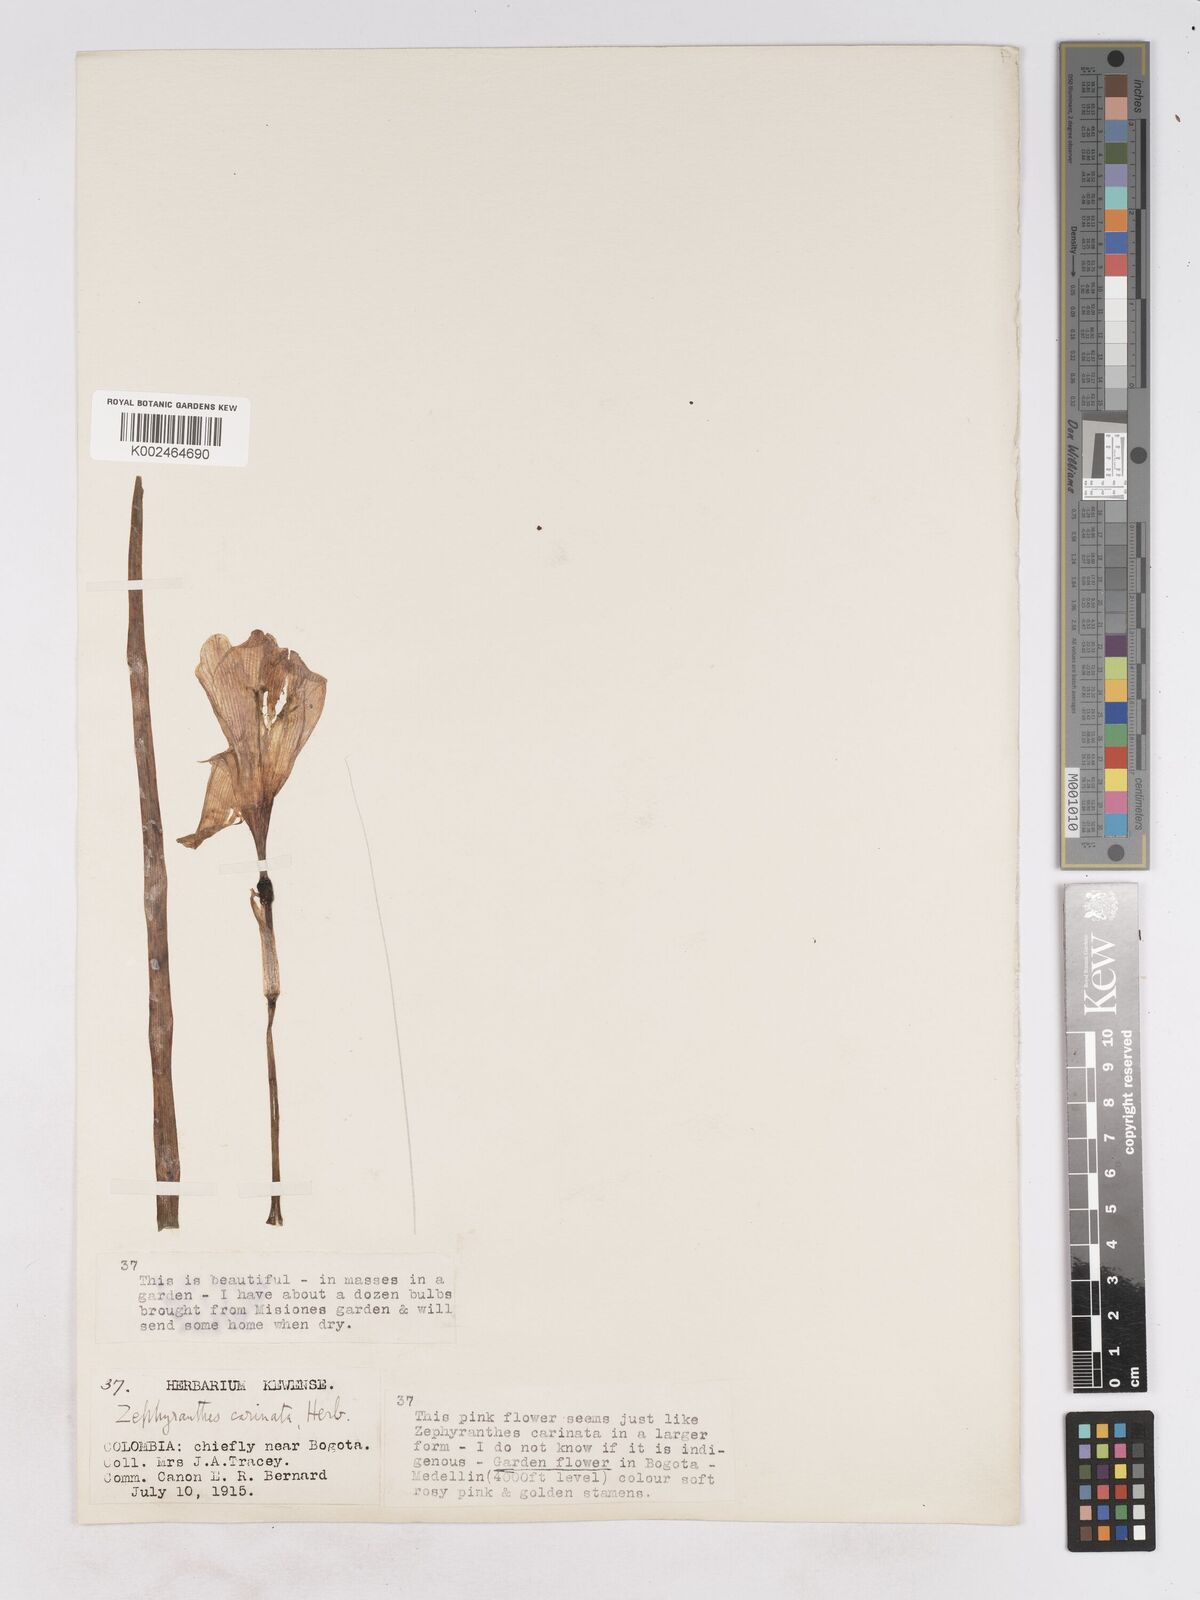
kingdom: Plantae
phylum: Tracheophyta
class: Liliopsida
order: Asparagales
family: Amaryllidaceae
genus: Zephyranthes
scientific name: Zephyranthes minuta
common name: Pink rain lily
